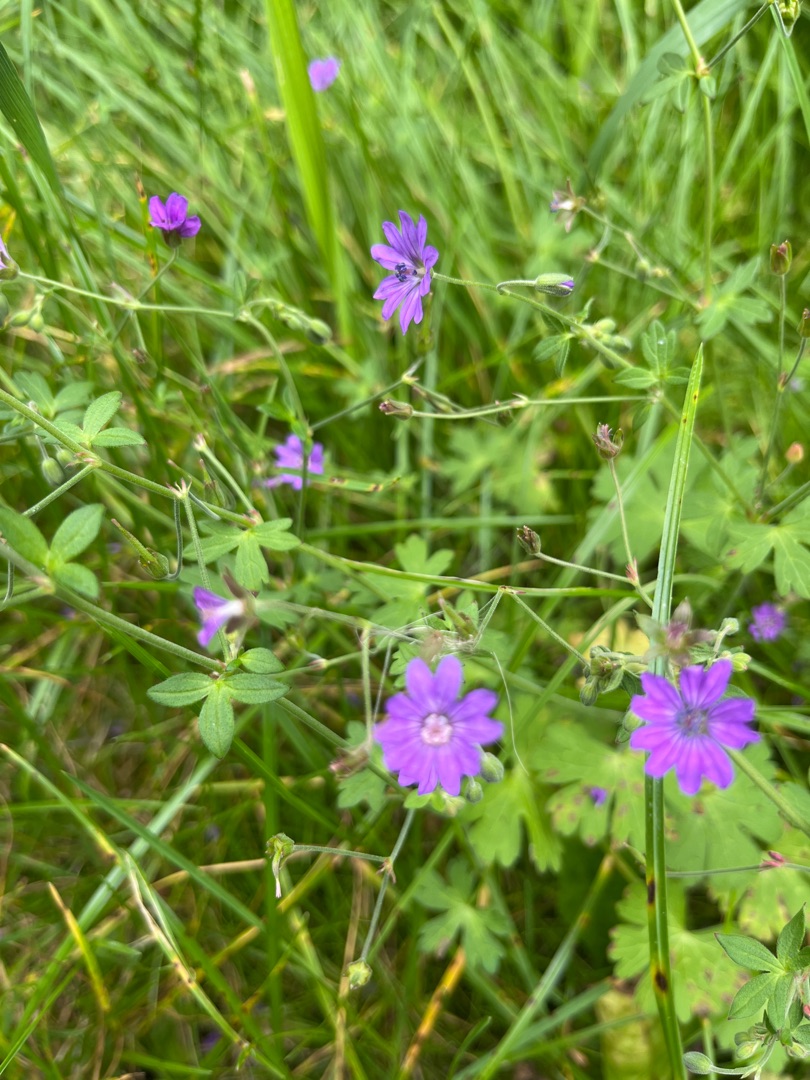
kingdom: Plantae
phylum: Tracheophyta
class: Magnoliopsida
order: Geraniales
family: Geraniaceae
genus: Geranium
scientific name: Geranium pyrenaicum
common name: Pyrenæisk storkenæb
